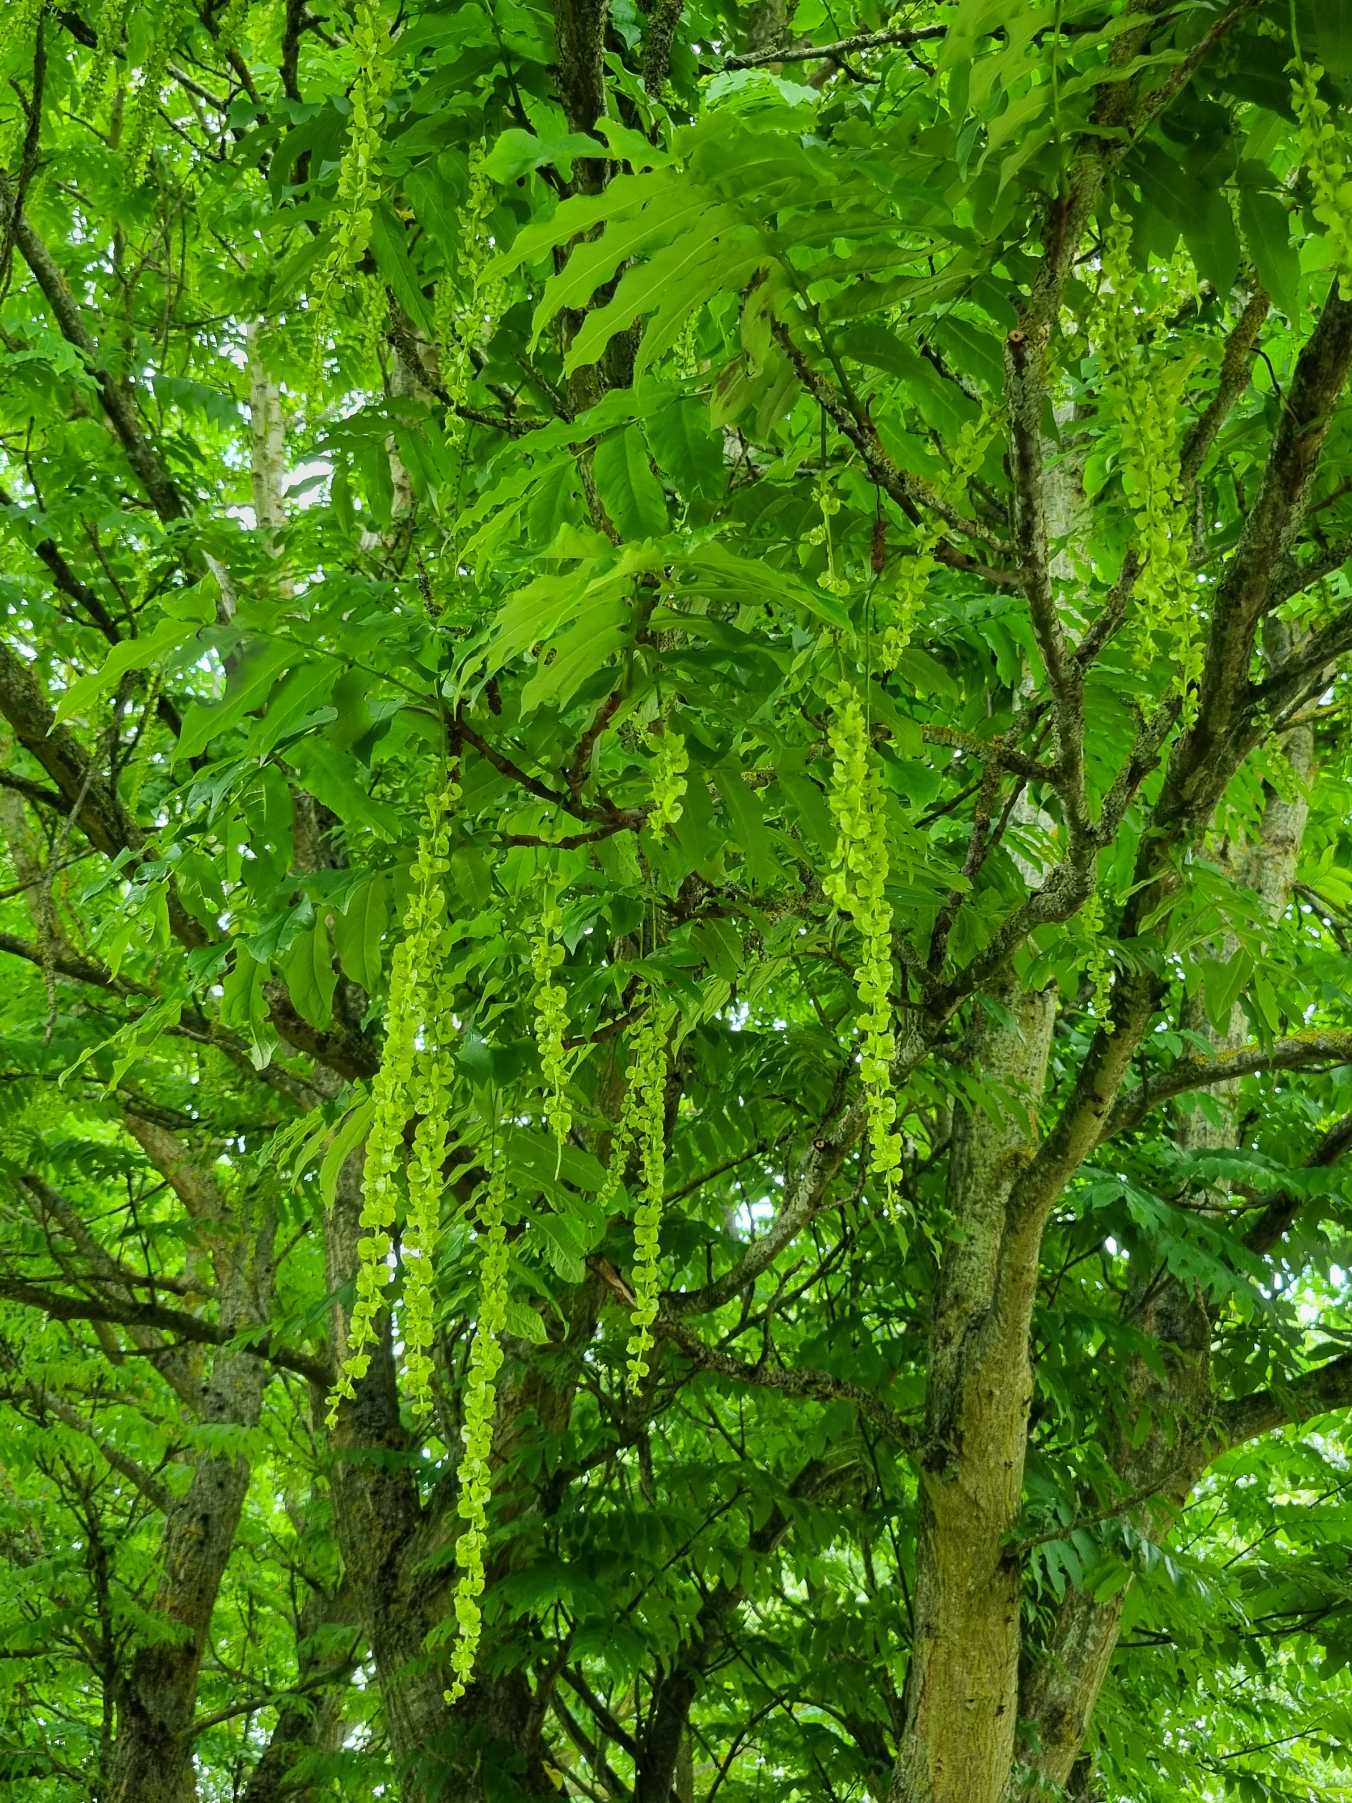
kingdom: Plantae
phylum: Tracheophyta
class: Magnoliopsida
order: Fagales
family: Juglandaceae
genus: Pterocarya
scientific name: Pterocarya fraxinifolia
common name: Kaukasisk vingevalnød
